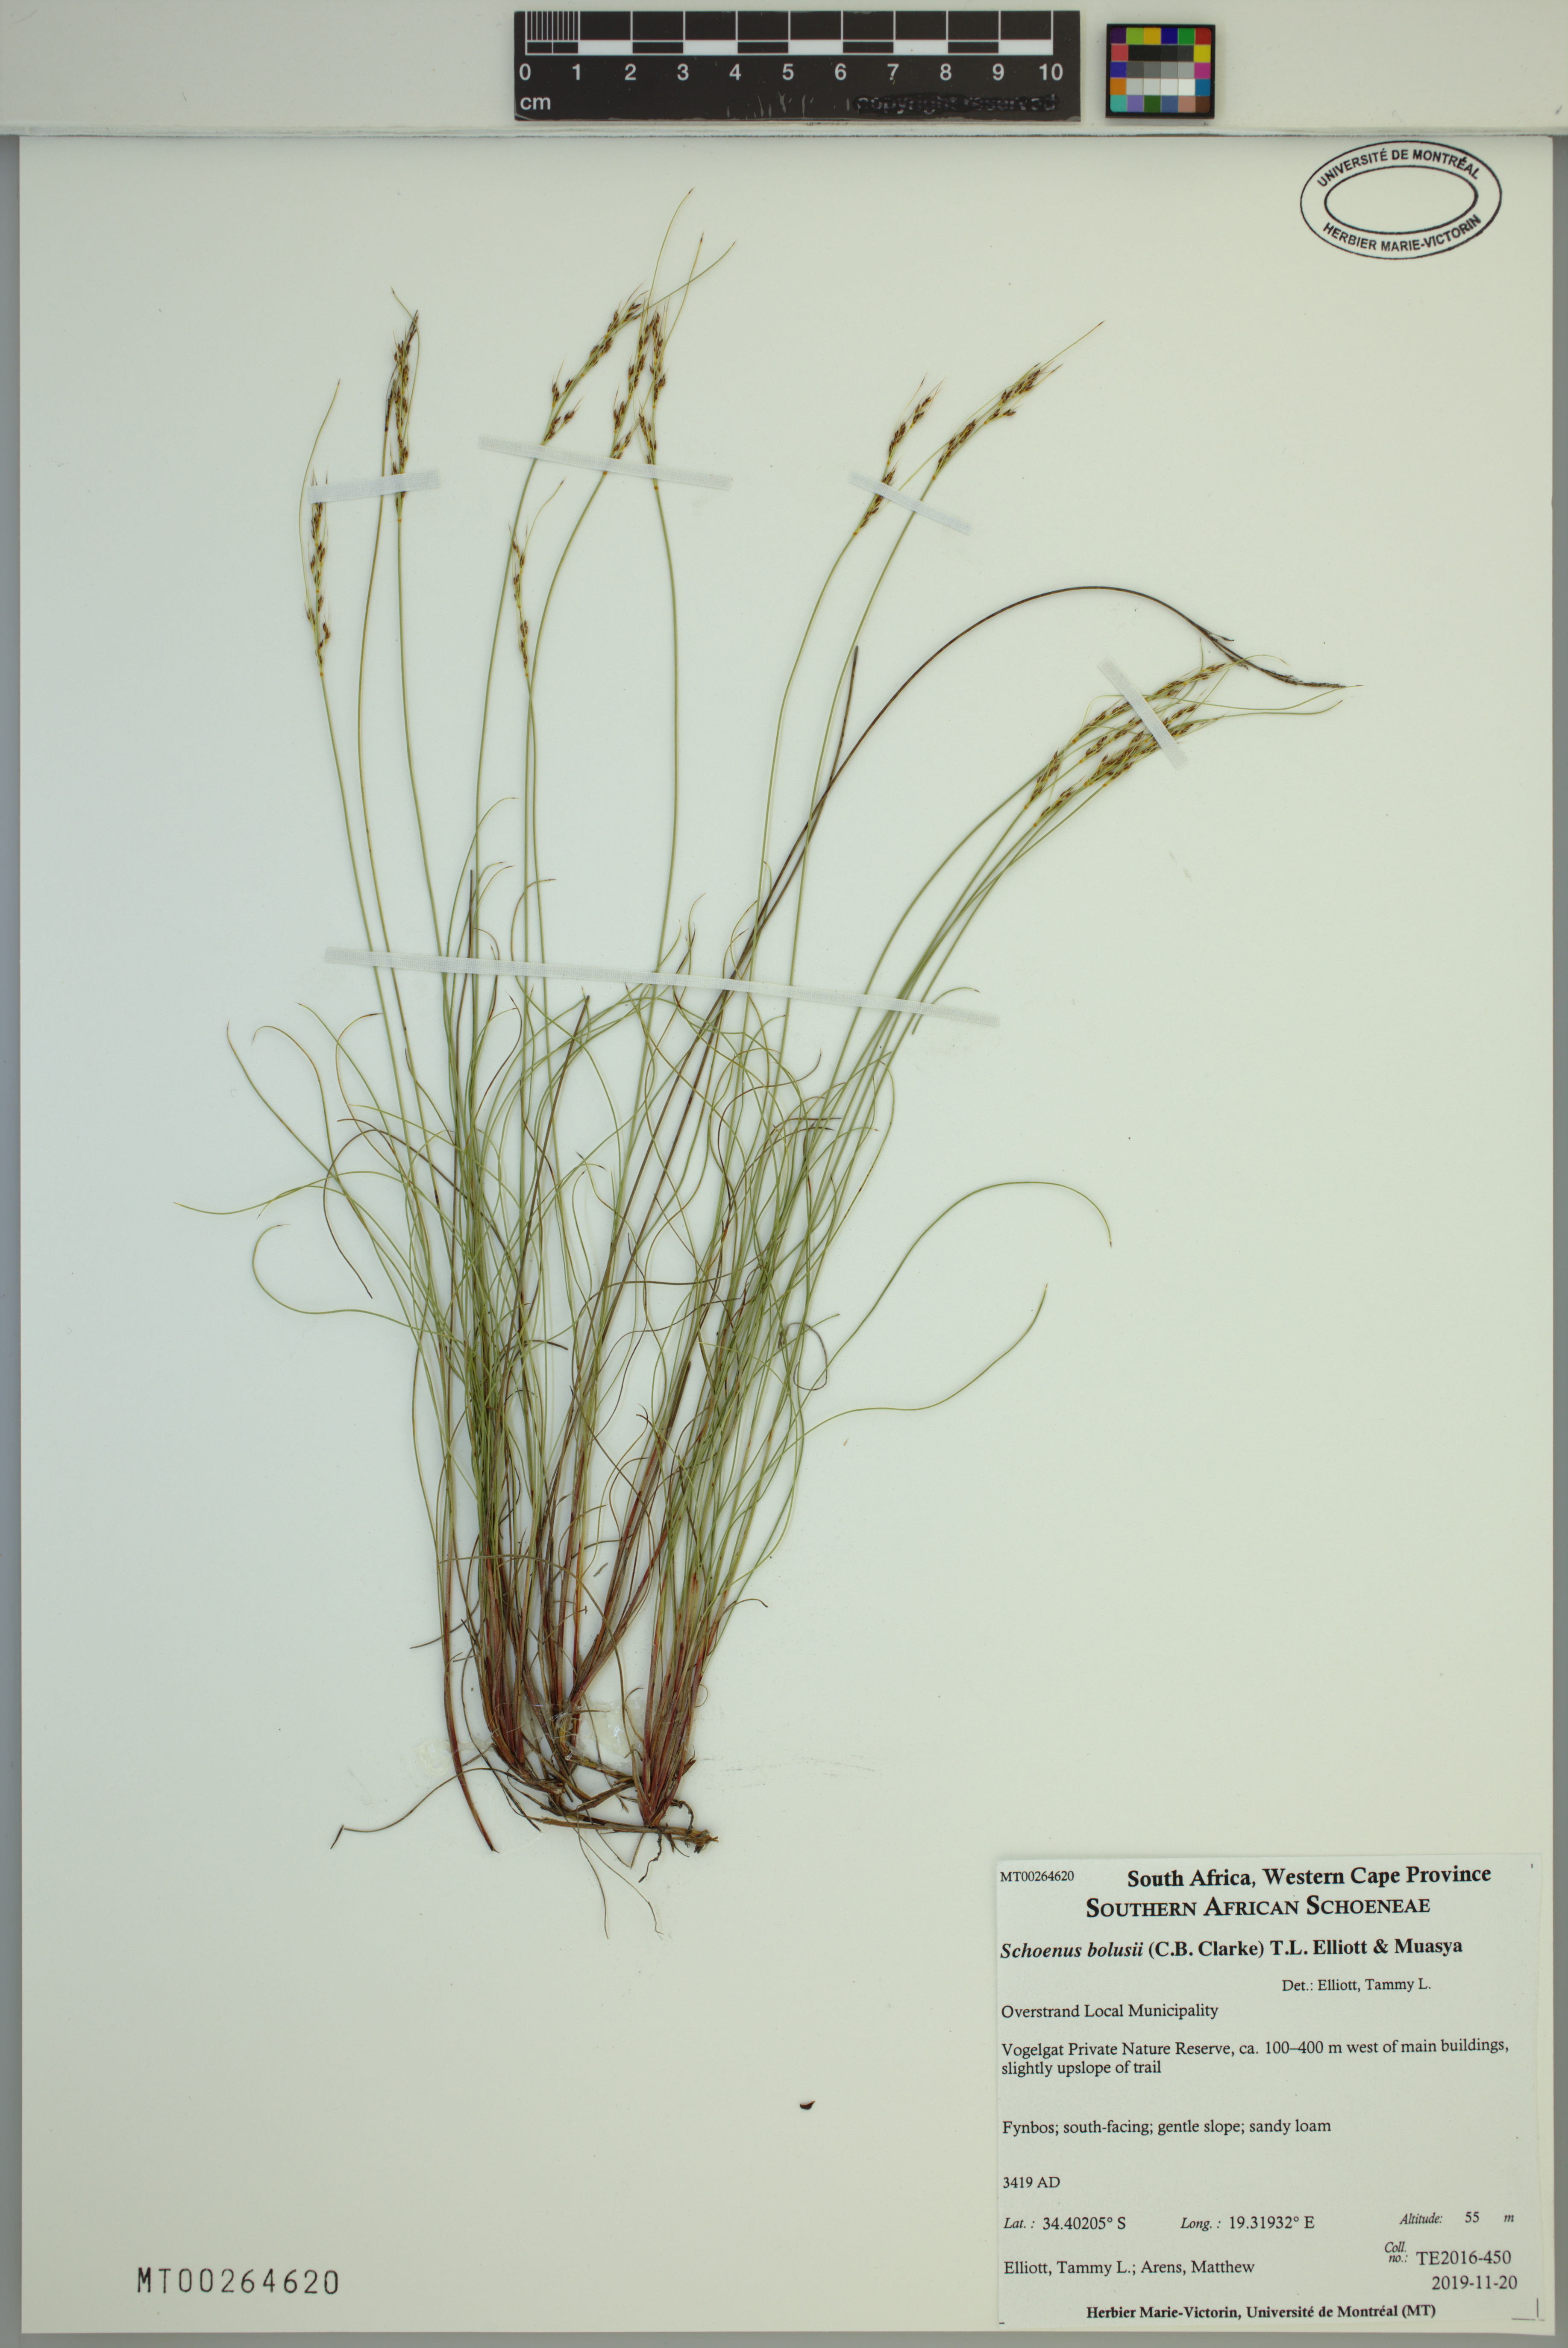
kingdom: Plantae
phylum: Tracheophyta
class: Liliopsida
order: Poales
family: Cyperaceae
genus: Schoenus
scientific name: Schoenus bolusii
